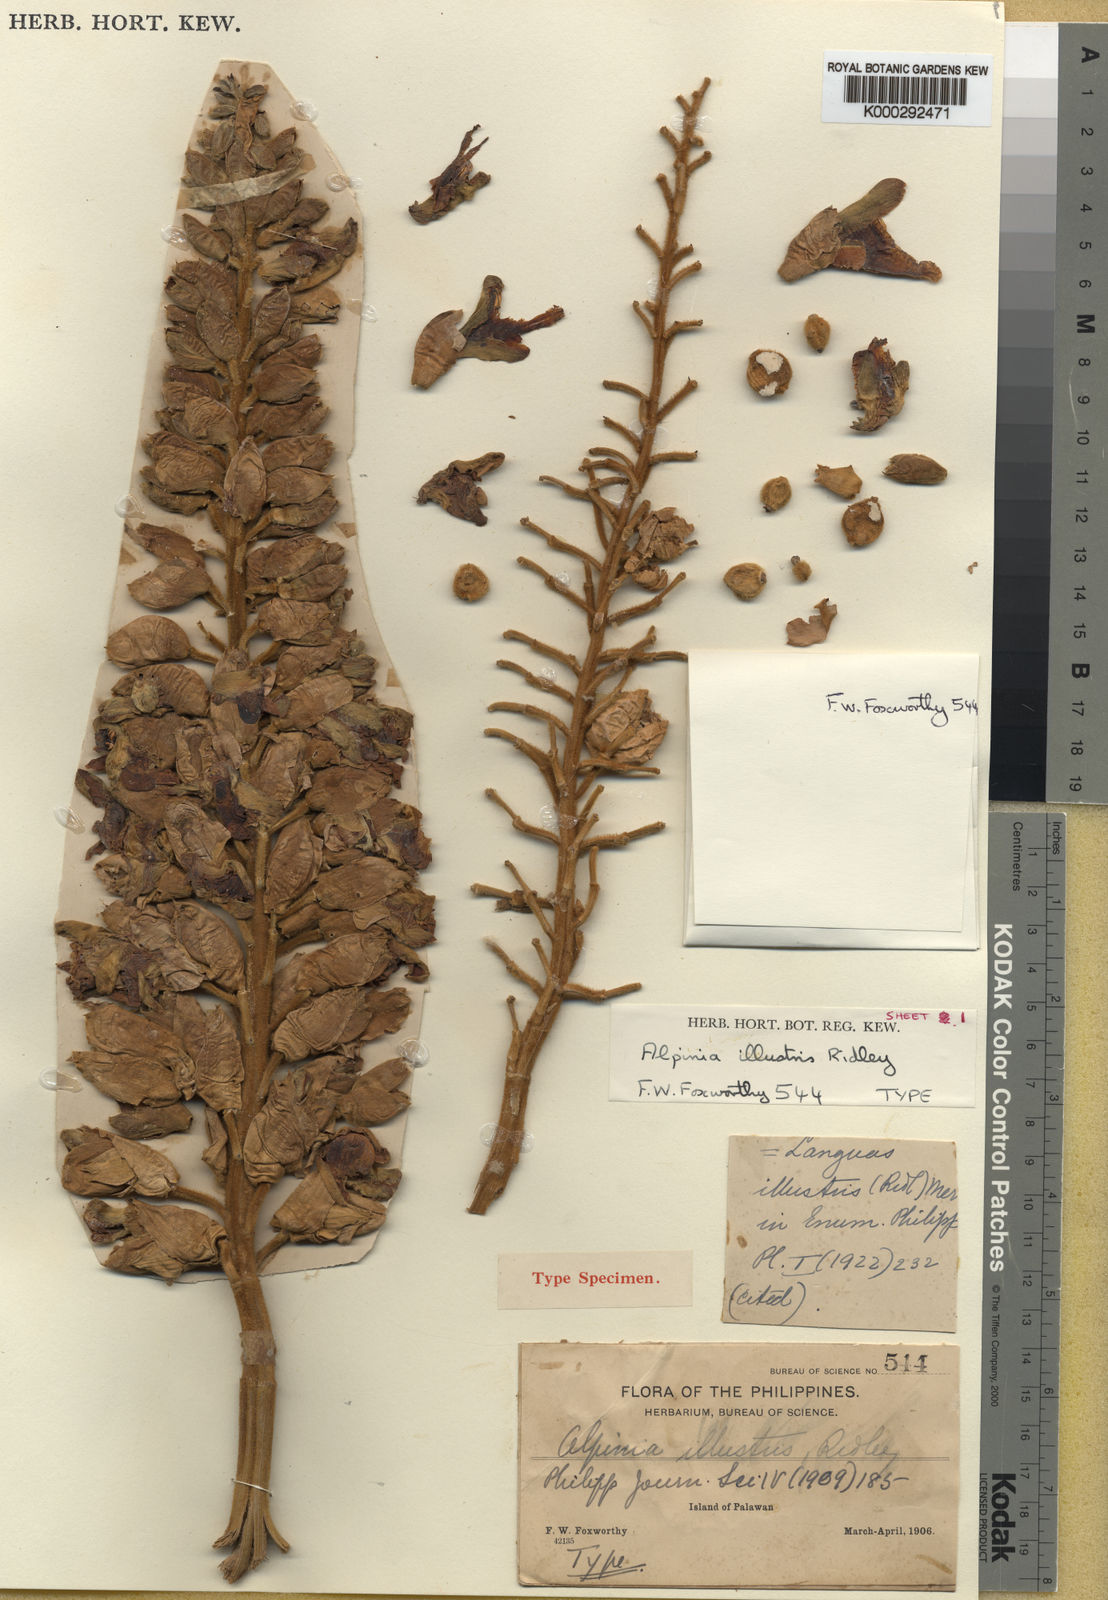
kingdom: Plantae
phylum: Tracheophyta
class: Liliopsida
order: Zingiberales
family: Zingiberaceae
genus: Alpinia
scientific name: Alpinia illustris
